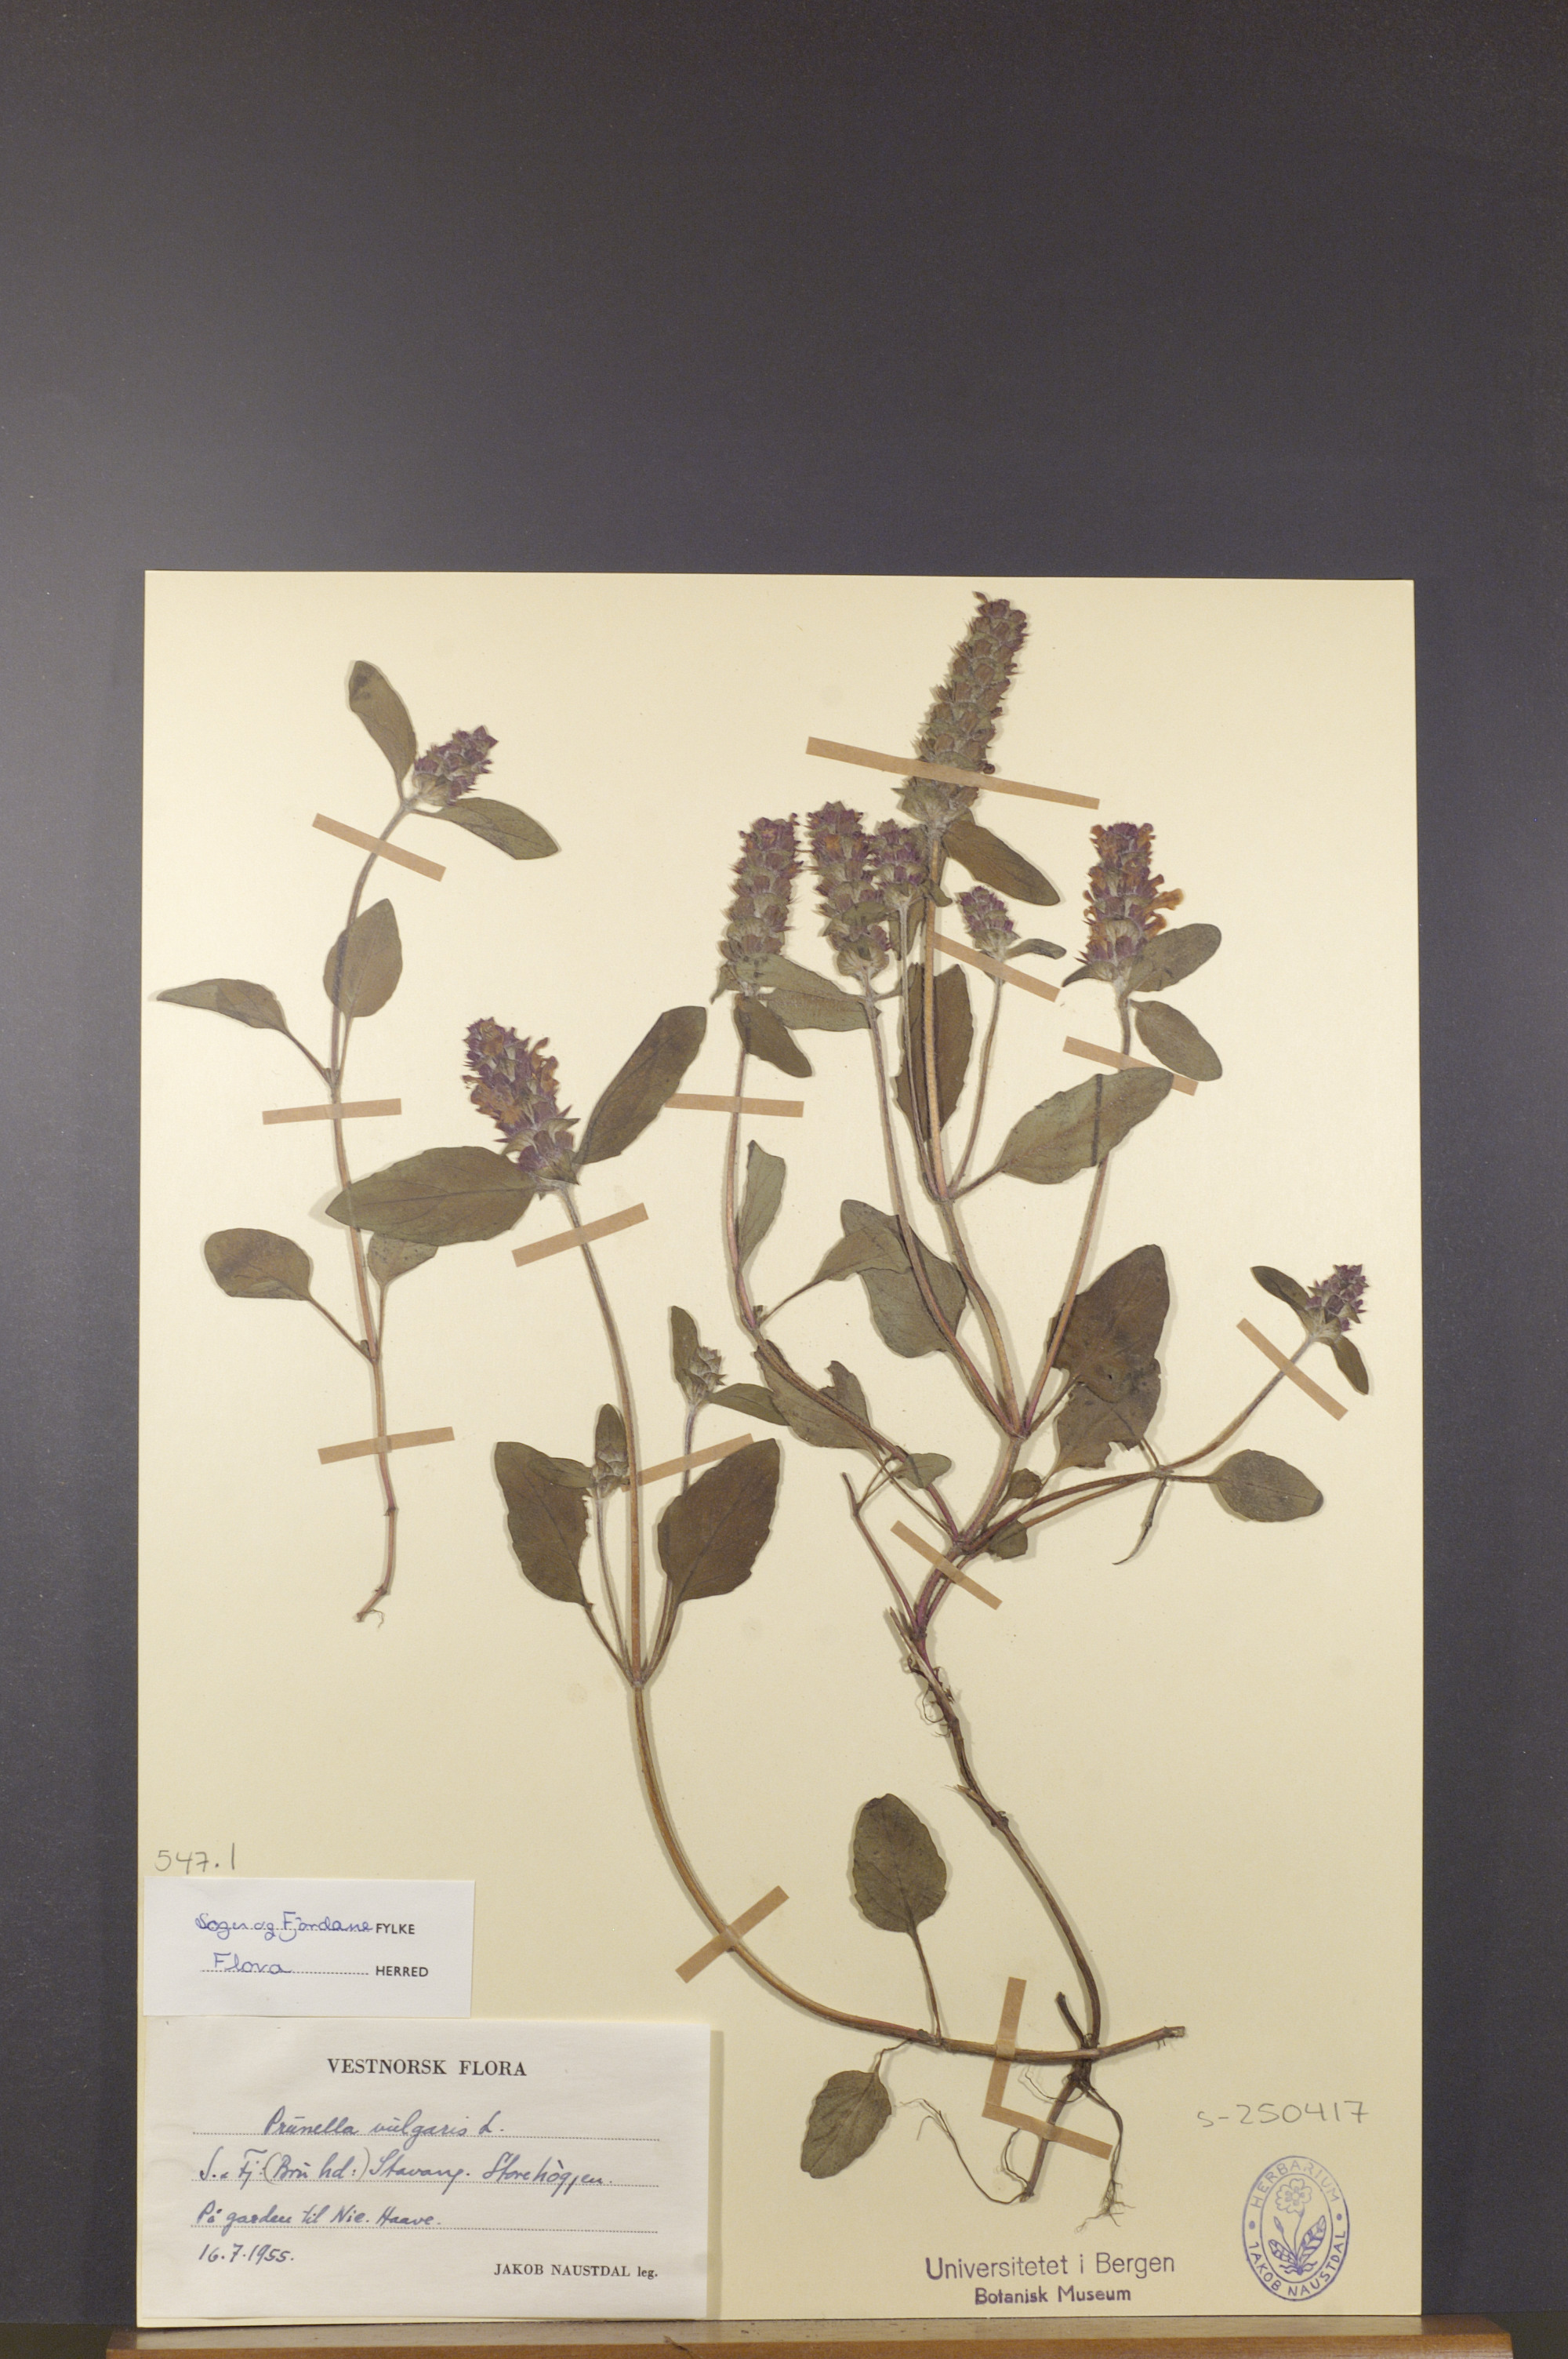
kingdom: Plantae
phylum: Tracheophyta
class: Magnoliopsida
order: Lamiales
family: Lamiaceae
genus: Prunella
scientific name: Prunella vulgaris
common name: Heal-all
